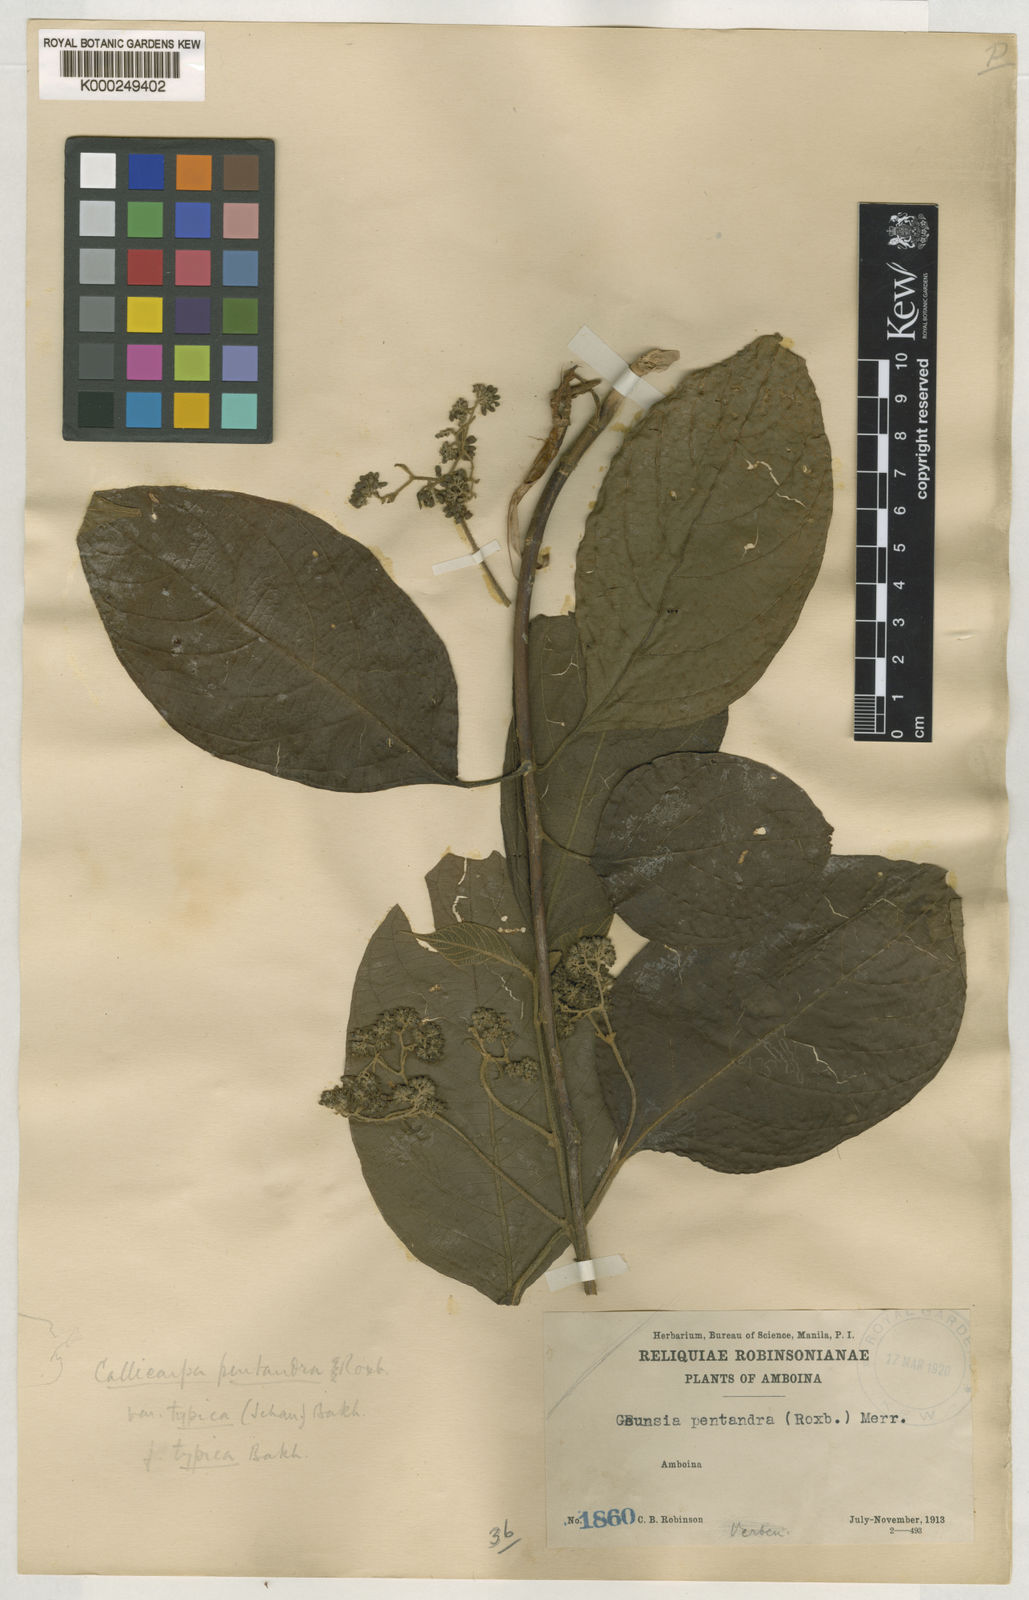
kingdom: Plantae
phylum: Tracheophyta
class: Magnoliopsida
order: Lamiales
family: Lamiaceae
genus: Callicarpa
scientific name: Callicarpa pentandra
